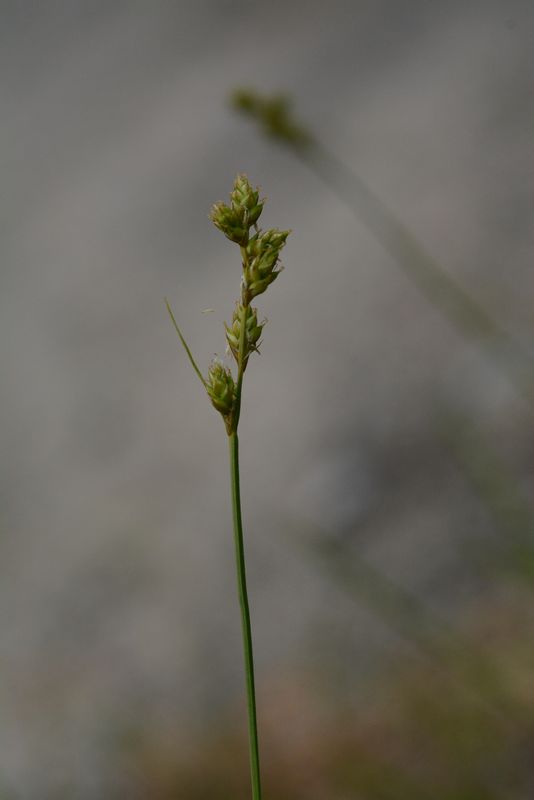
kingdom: Plantae
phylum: Tracheophyta
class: Liliopsida
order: Poales
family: Cyperaceae
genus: Carex
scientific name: Carex brunnescens
